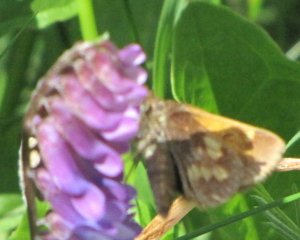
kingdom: Animalia
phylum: Arthropoda
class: Insecta
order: Lepidoptera
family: Hesperiidae
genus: Lon
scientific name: Lon hobomok
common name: Hobomok Skipper
